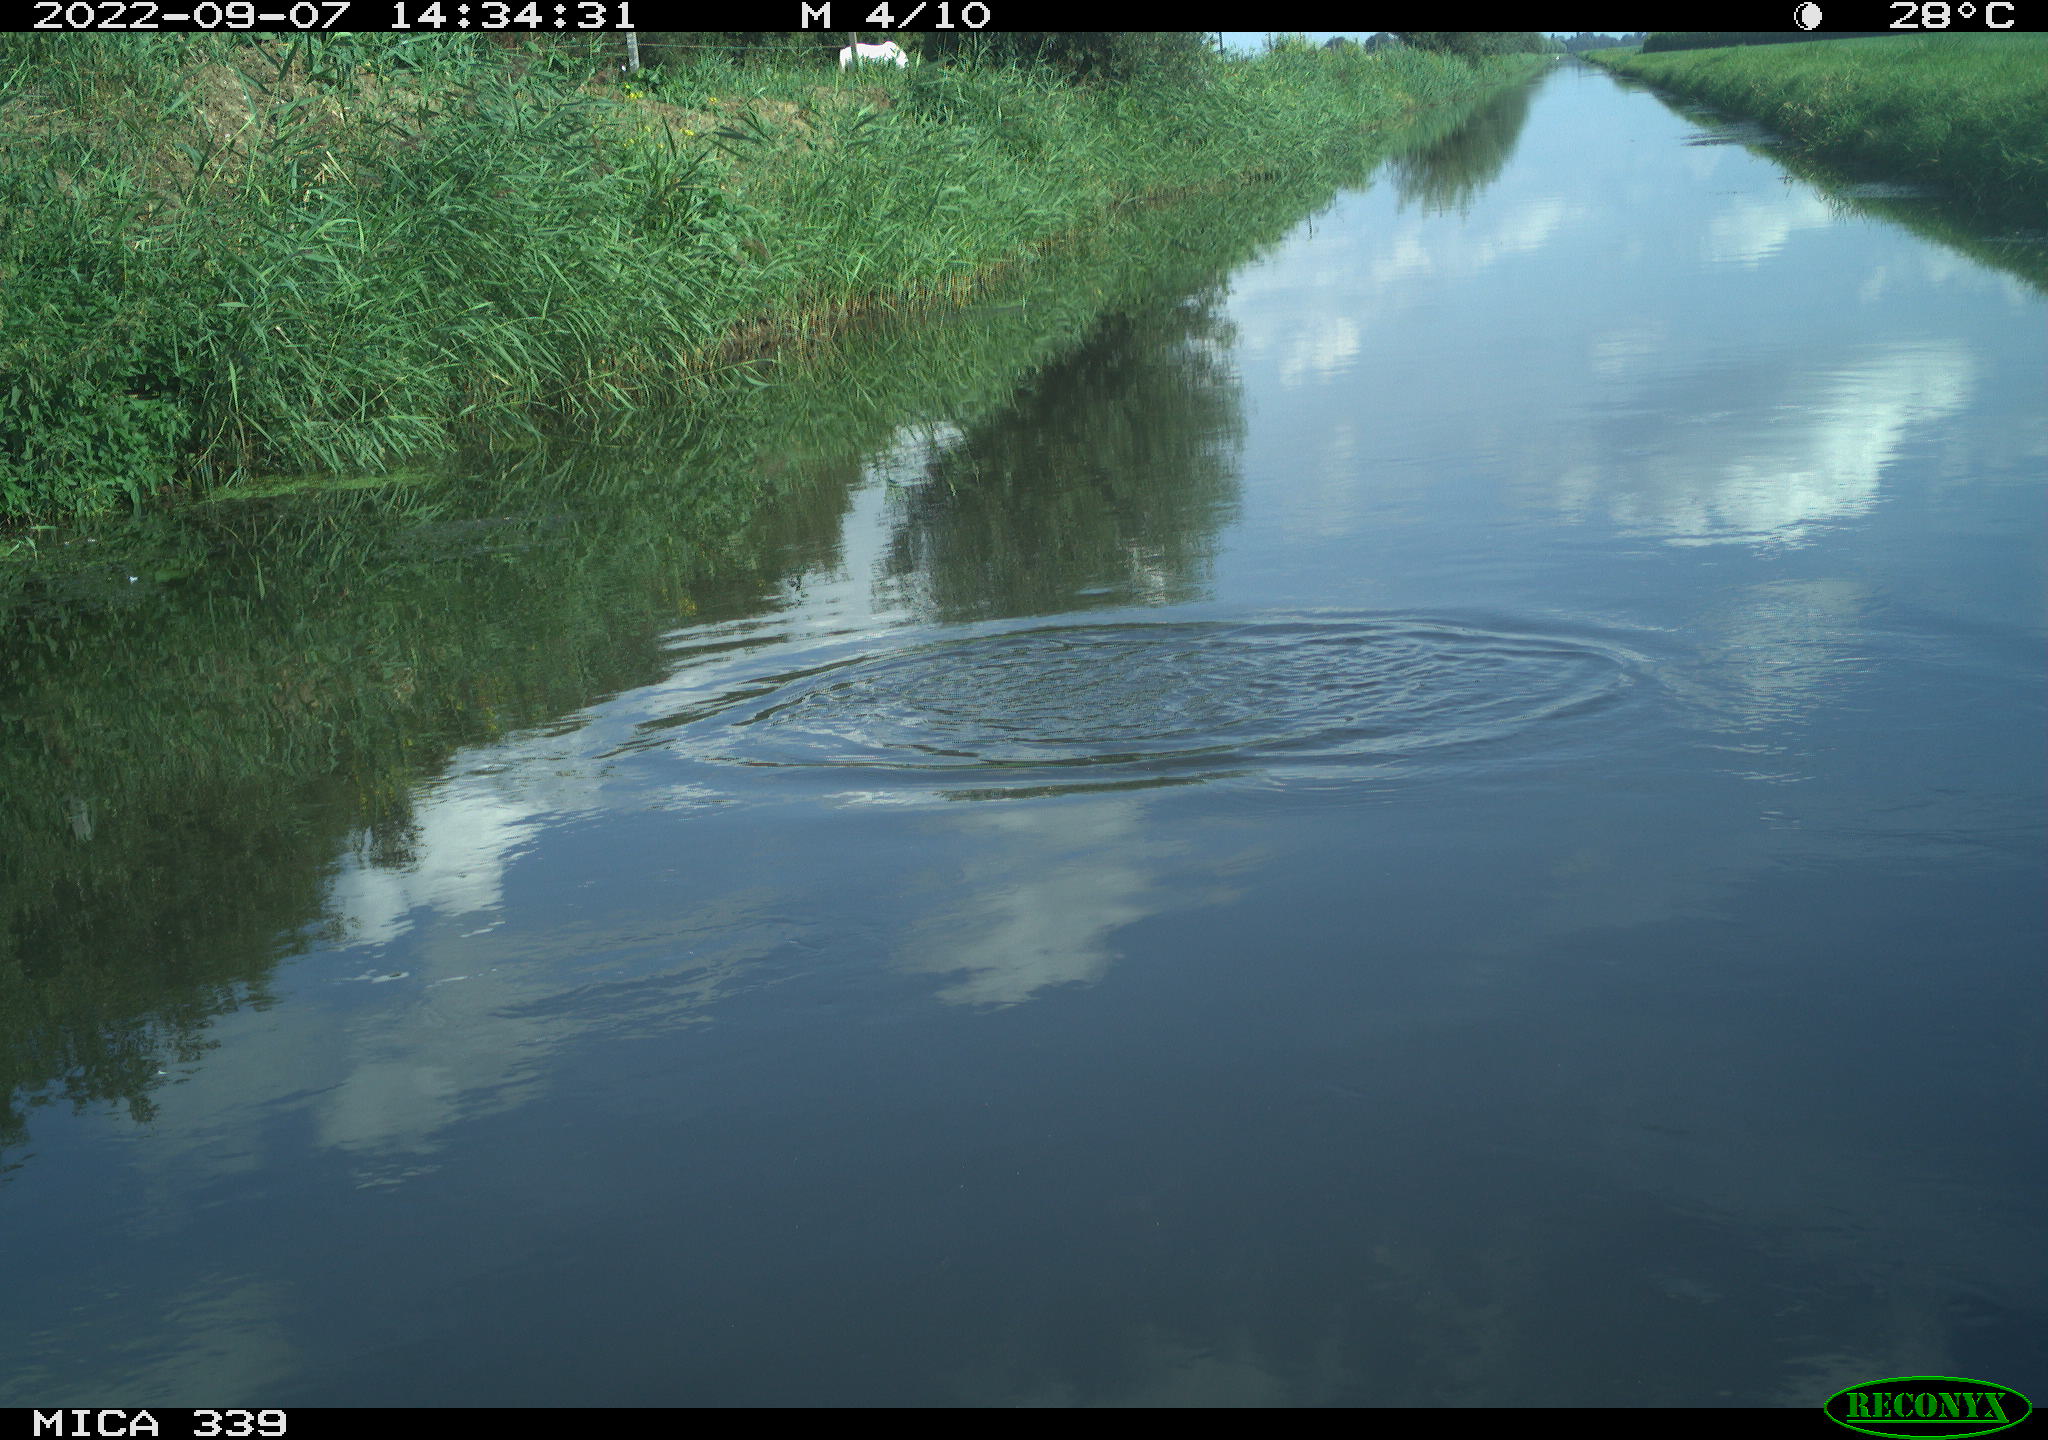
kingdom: Animalia
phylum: Chordata
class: Aves
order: Charadriiformes
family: Laridae
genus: Chroicocephalus
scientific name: Chroicocephalus ridibundus
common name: Black-headed gull
